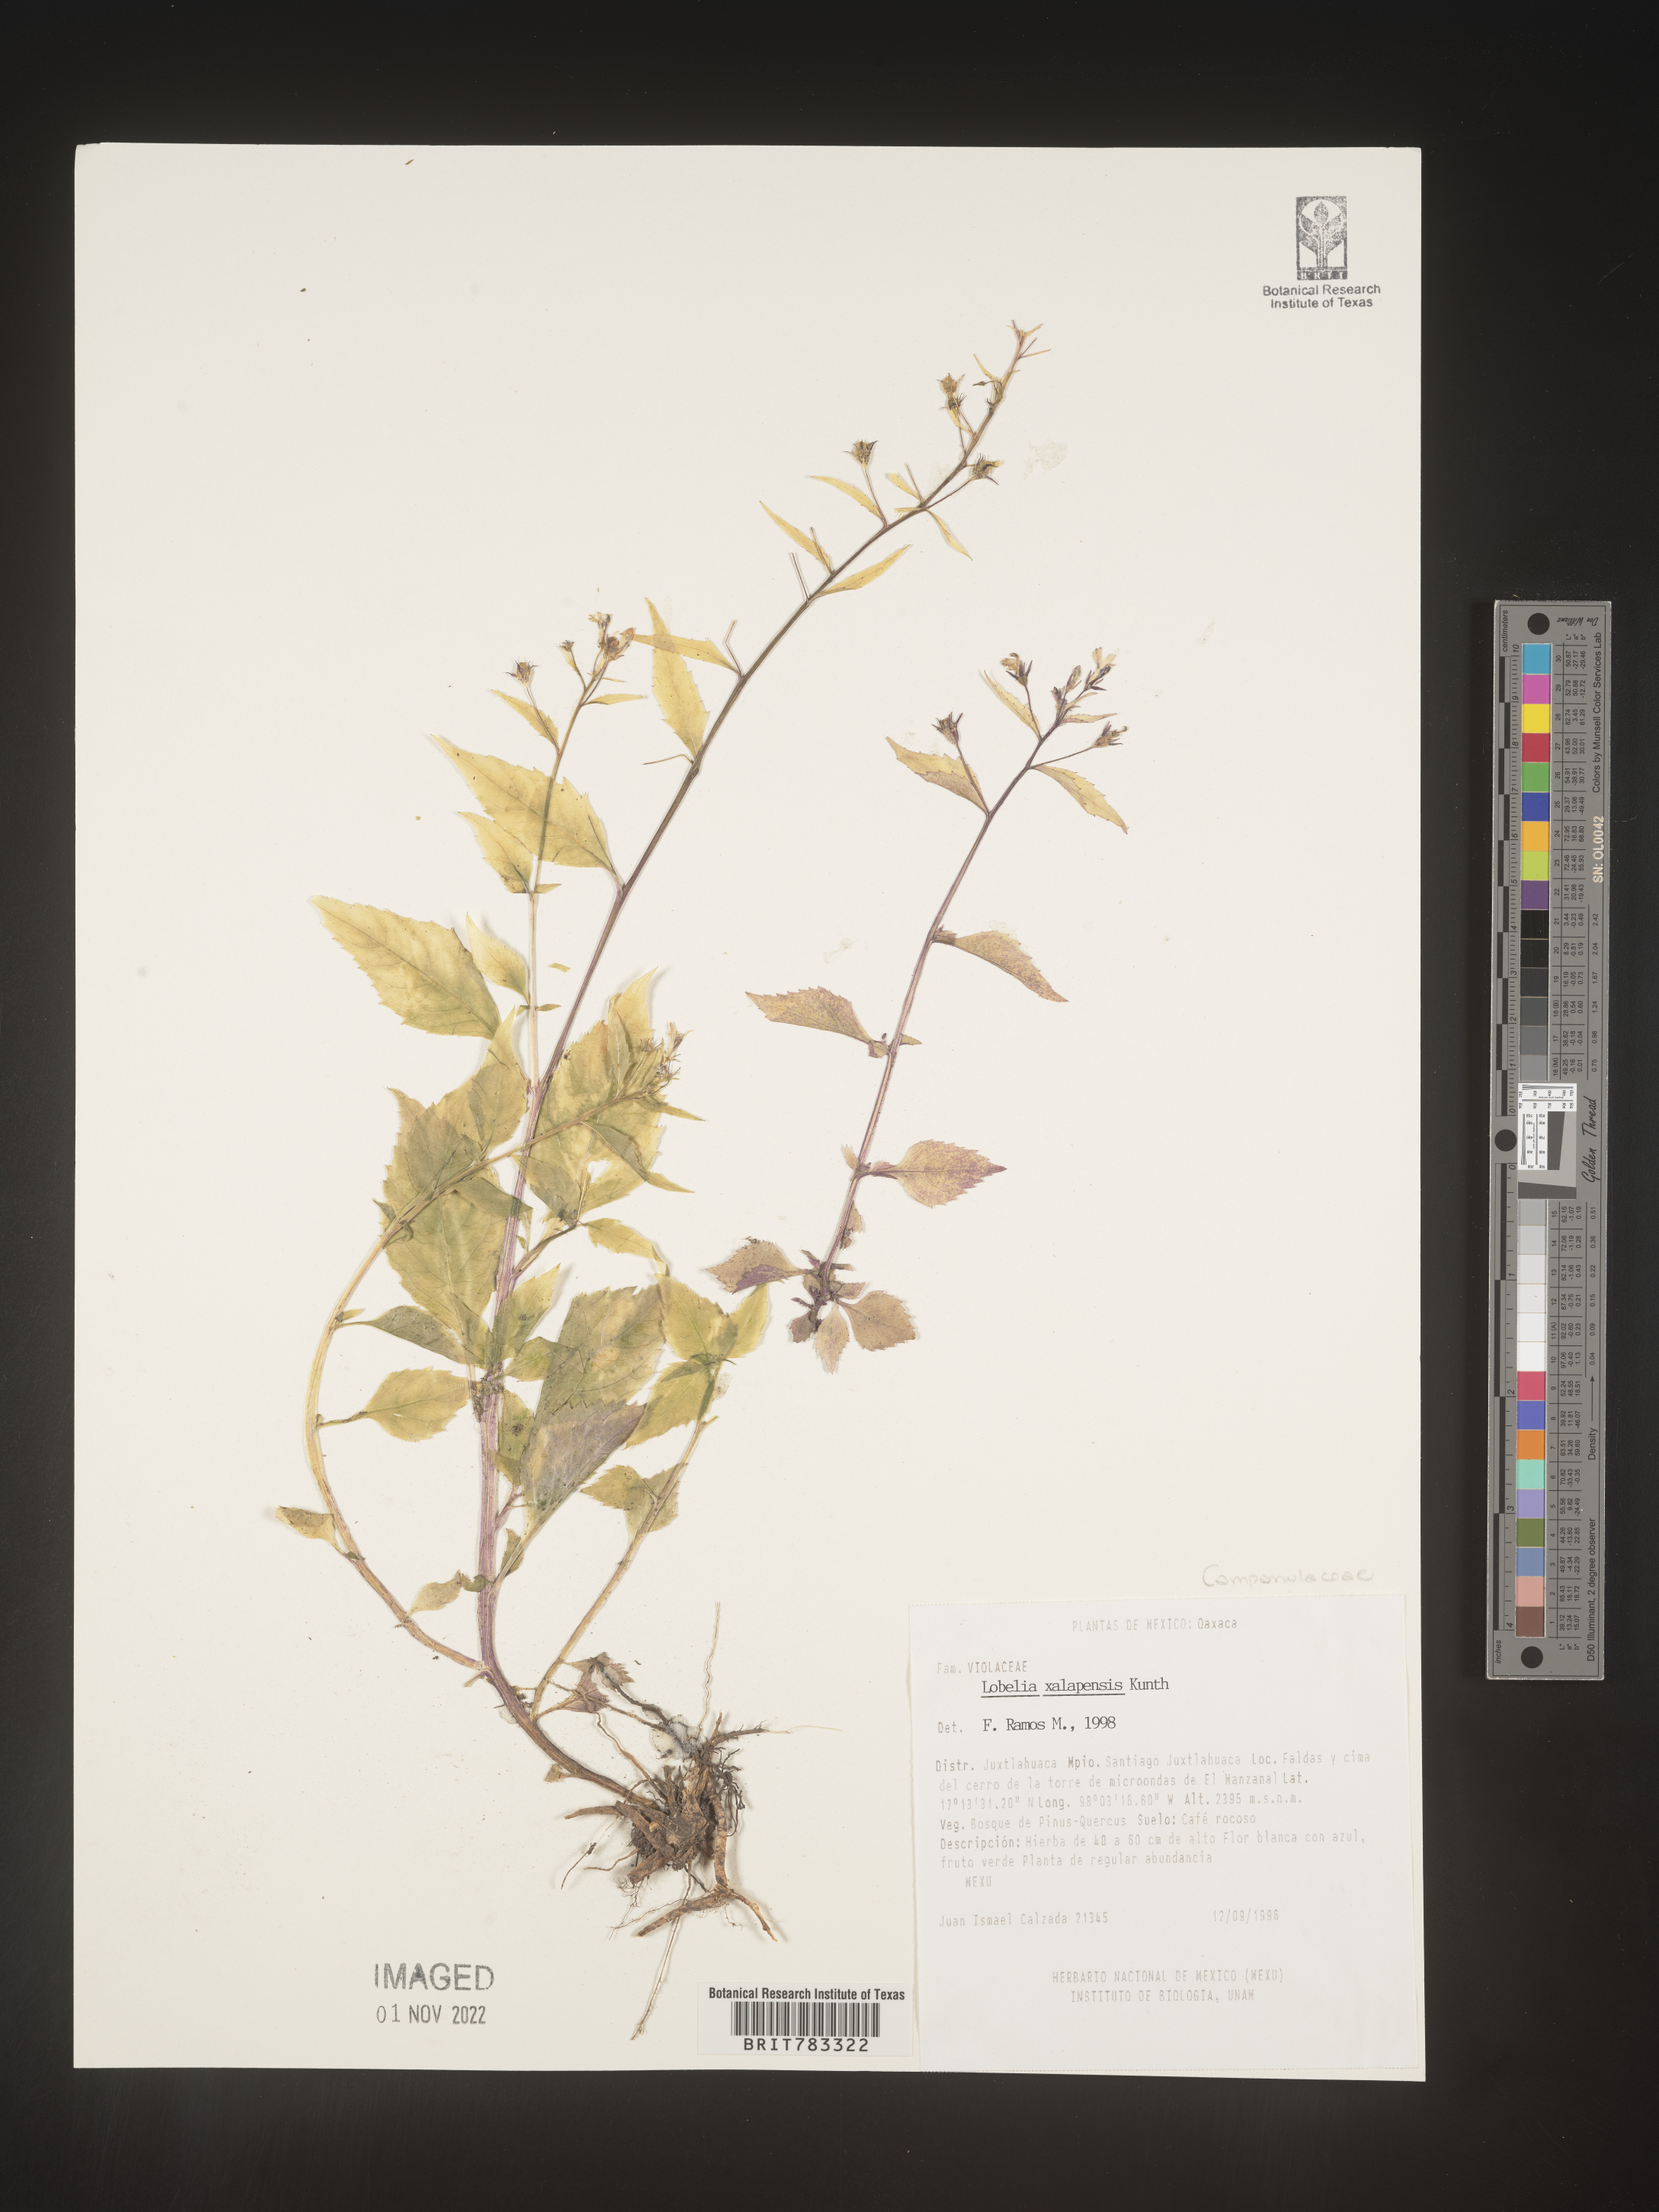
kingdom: Plantae
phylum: Tracheophyta
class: Magnoliopsida
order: Asterales
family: Campanulaceae
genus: Lobelia
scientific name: Lobelia
